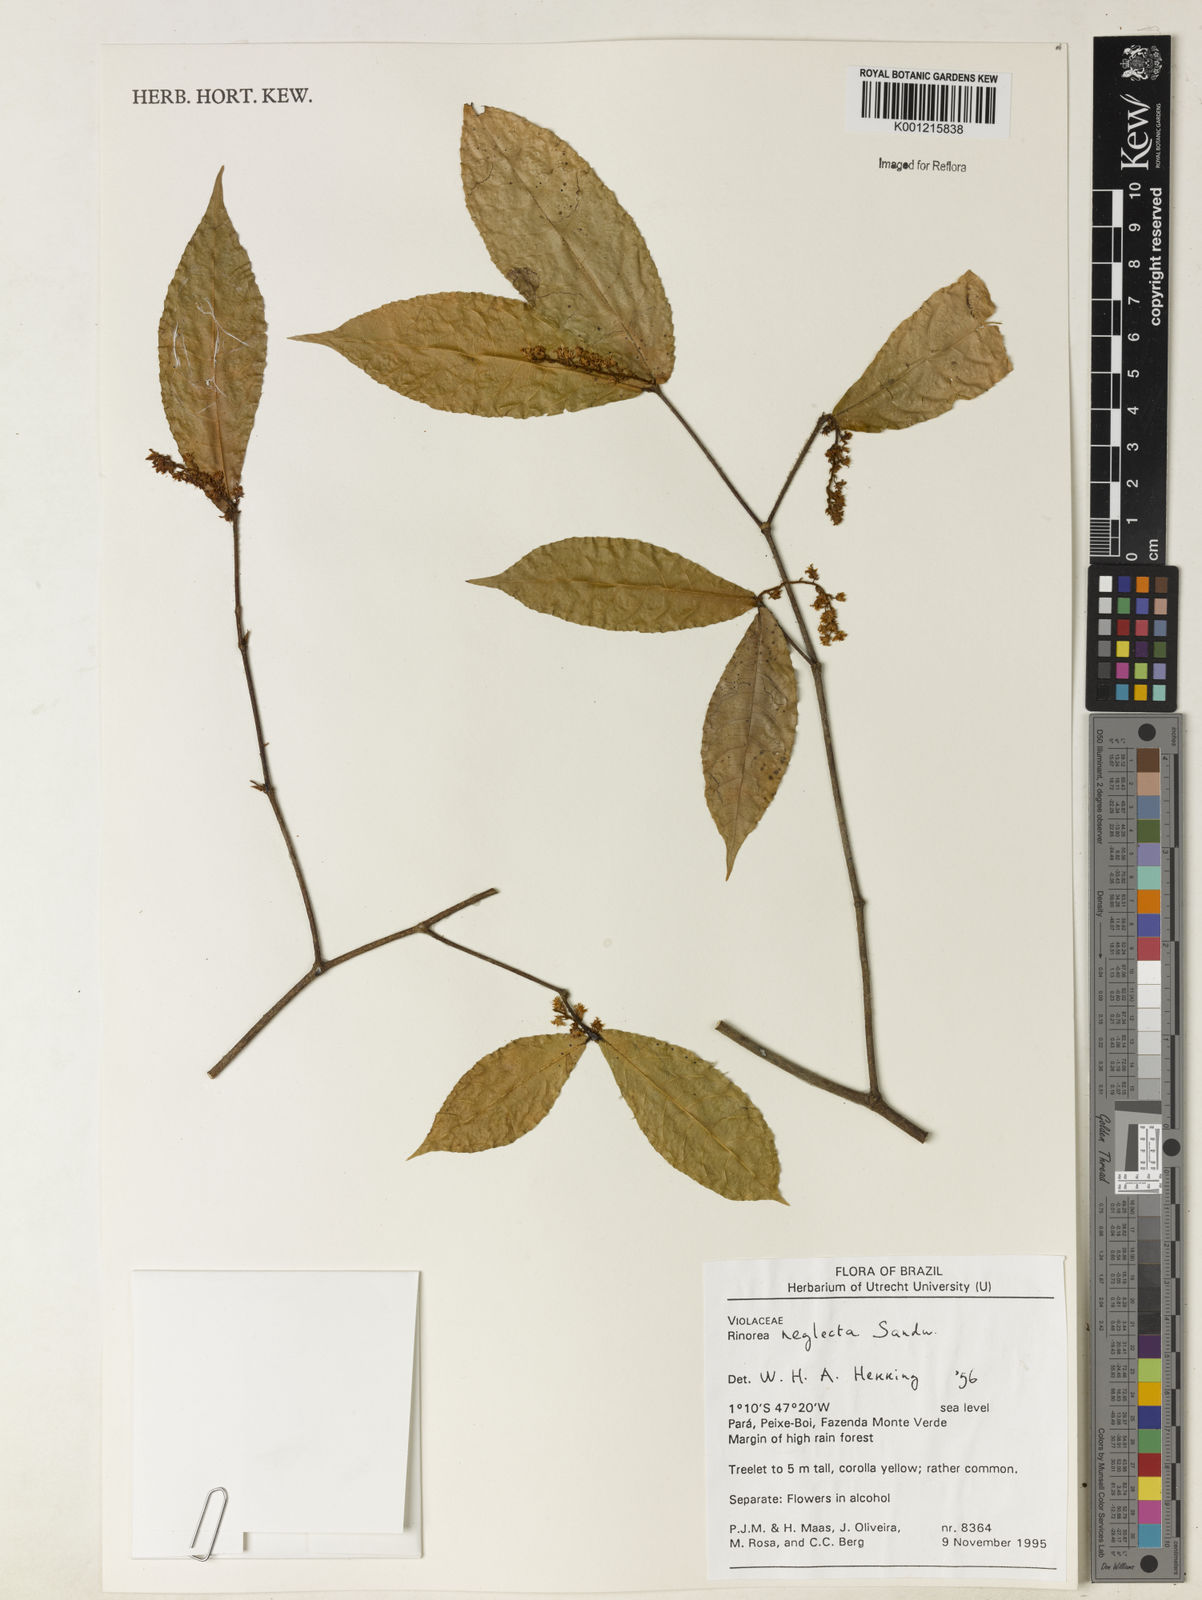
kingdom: Plantae
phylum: Tracheophyta
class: Magnoliopsida
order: Malpighiales
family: Violaceae
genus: Rinorea
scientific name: Rinorea neglecta
